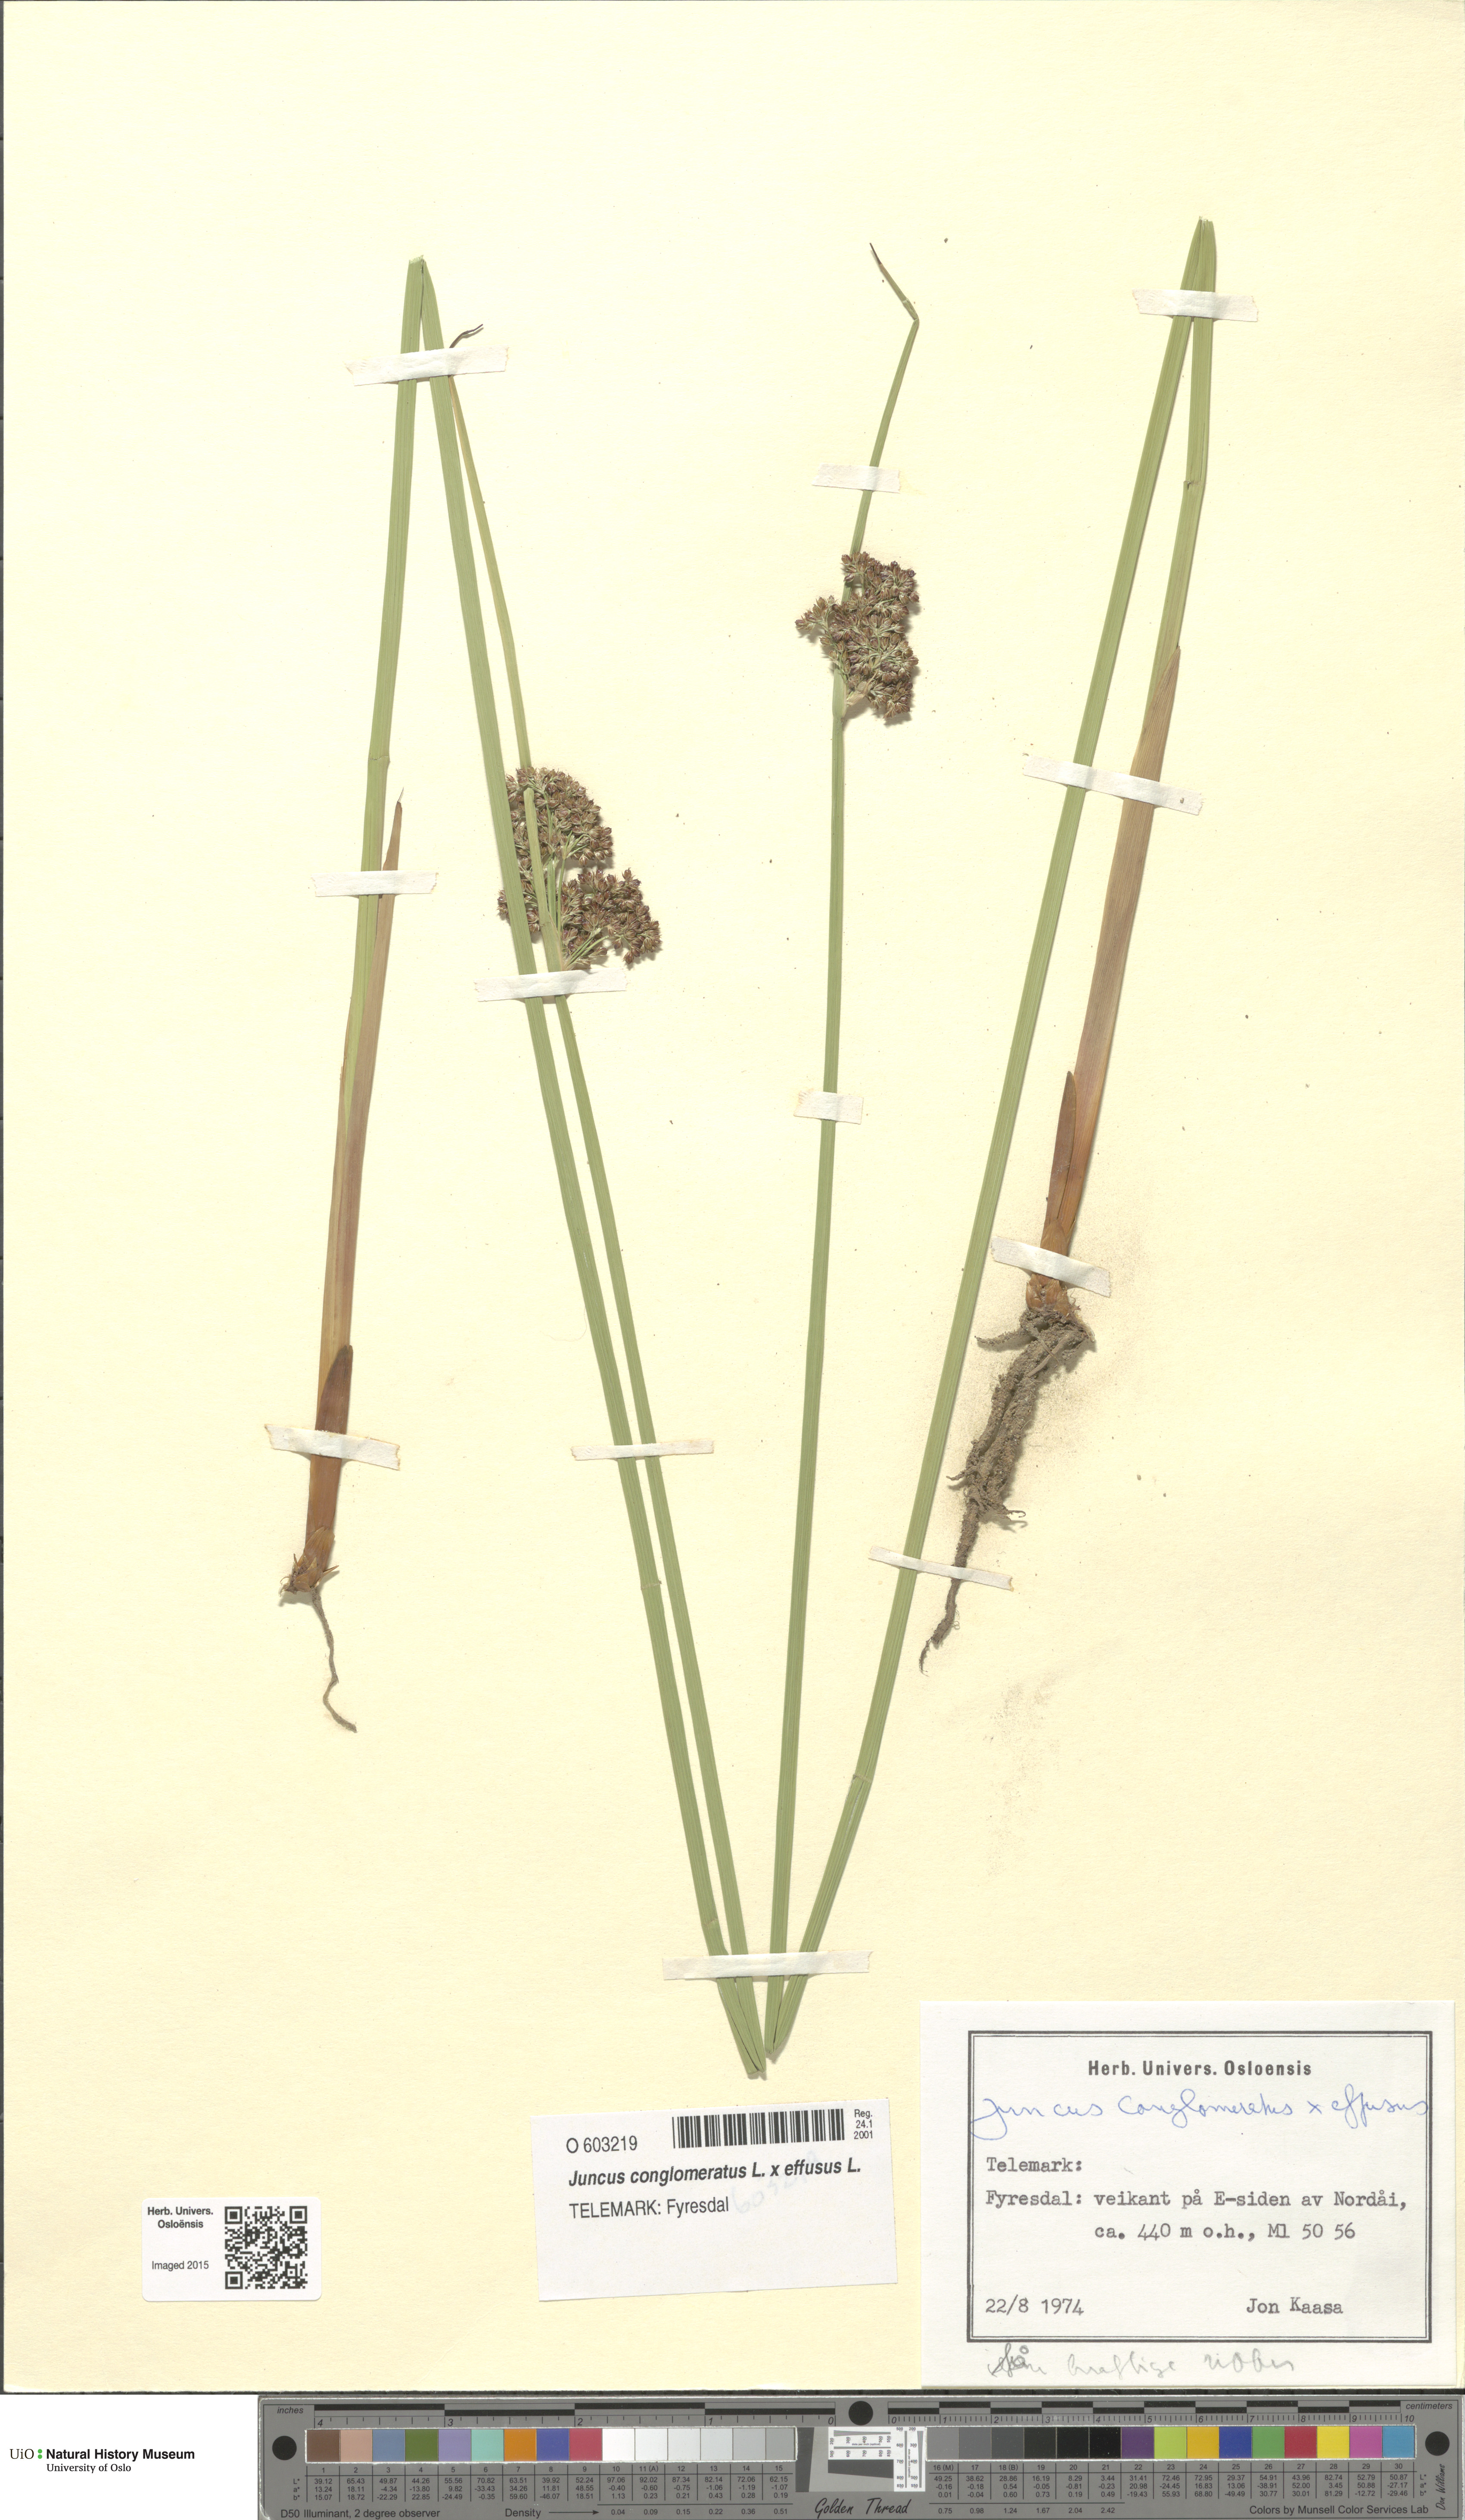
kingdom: Plantae
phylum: Tracheophyta
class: Liliopsida
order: Poales
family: Juncaceae
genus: Juncus
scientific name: Juncus
